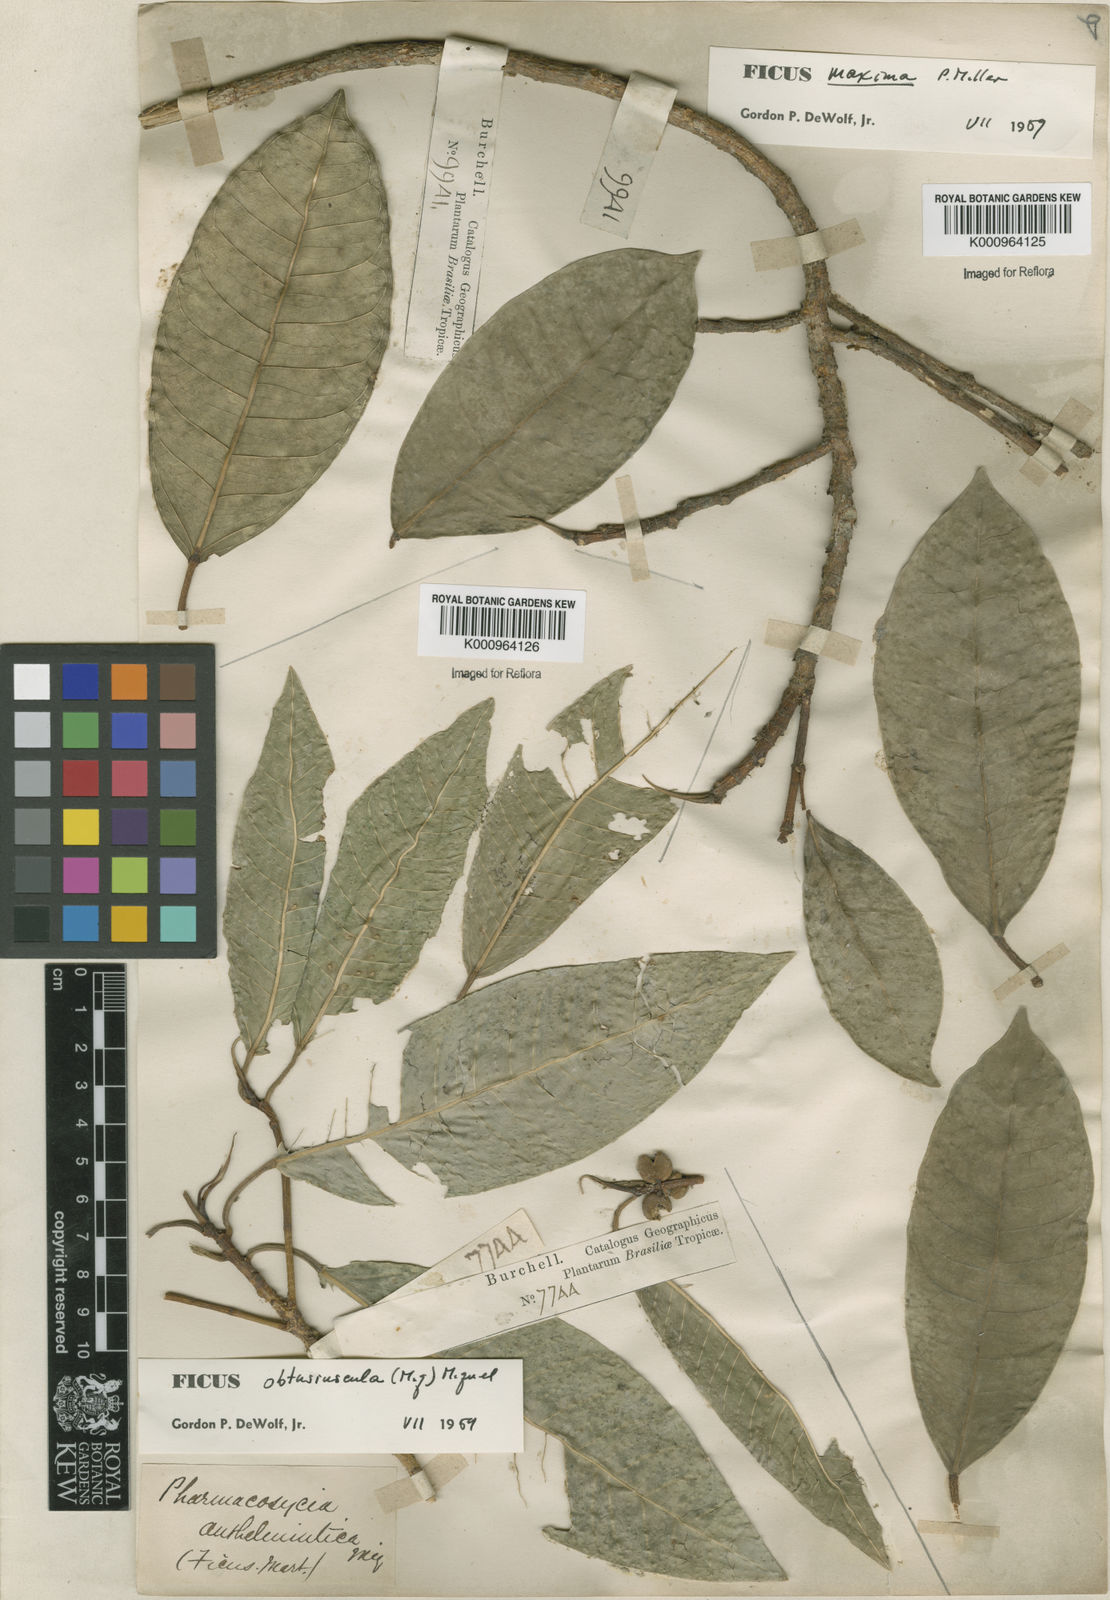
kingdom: Plantae
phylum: Tracheophyta
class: Magnoliopsida
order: Rosales
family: Moraceae
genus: Ficus
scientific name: Ficus obtusiuscula
